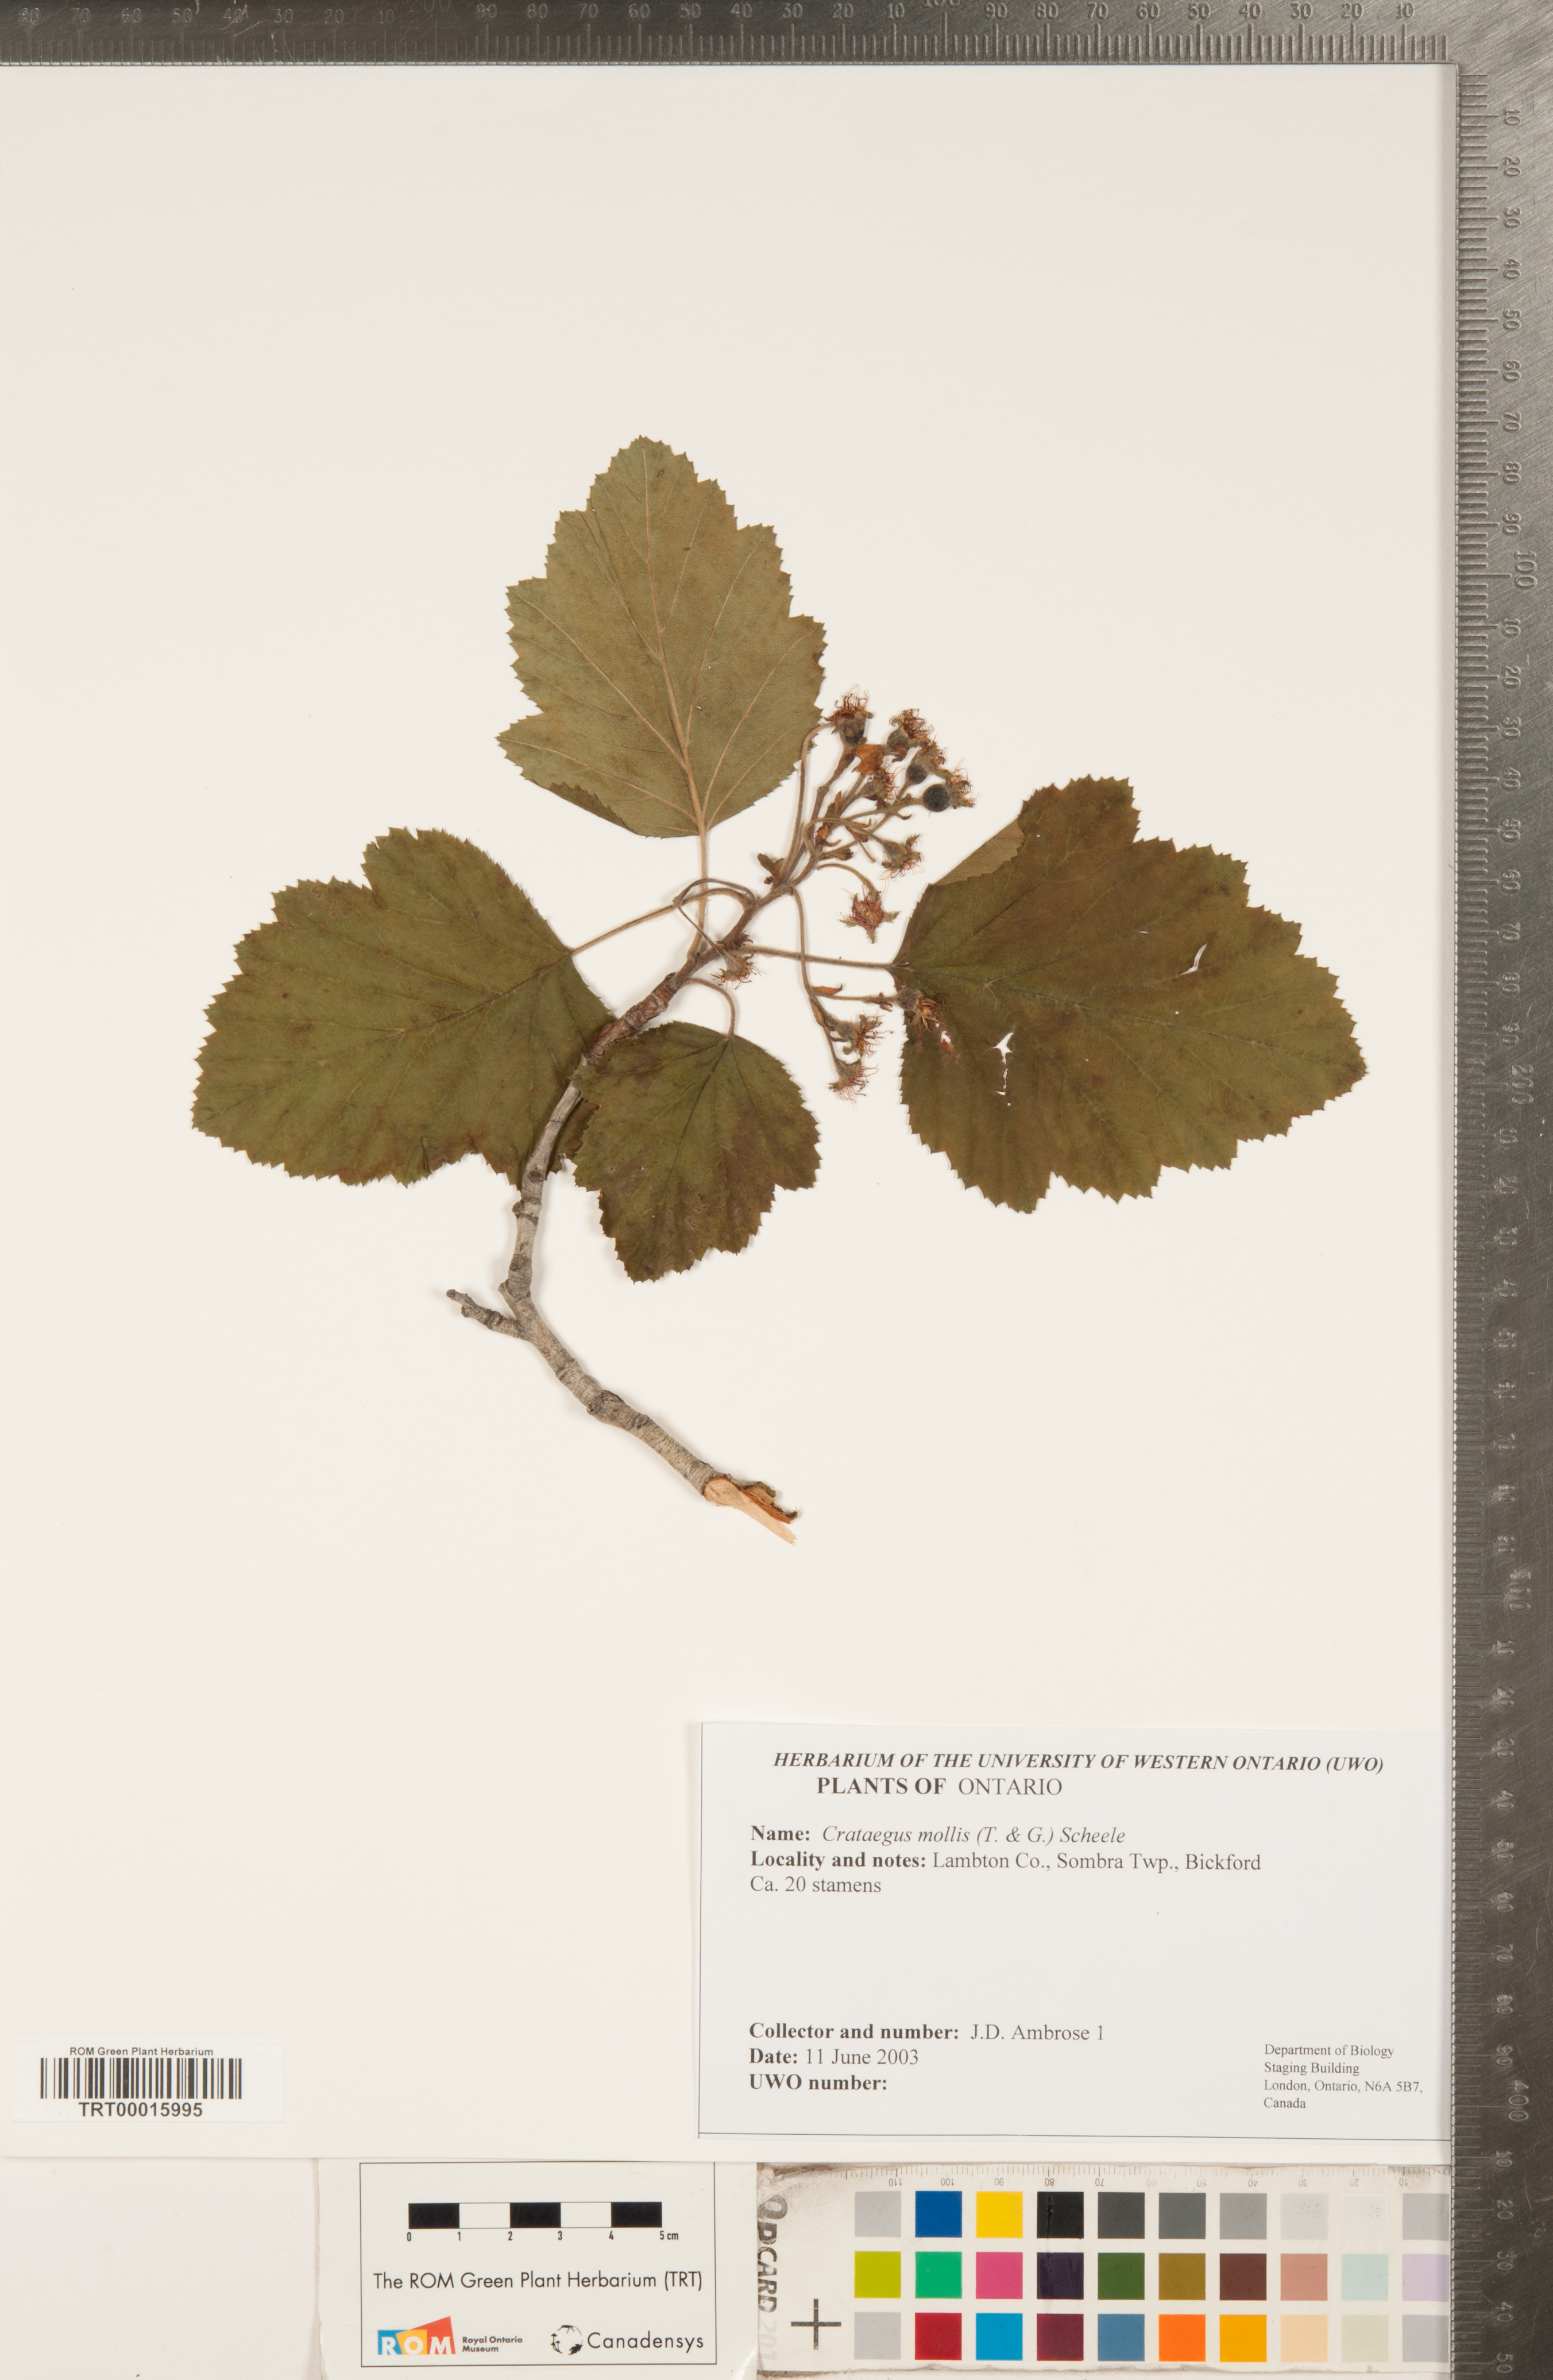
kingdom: Plantae
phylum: Tracheophyta
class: Magnoliopsida
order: Rosales
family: Rosaceae
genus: Crataegus
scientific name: Crataegus mollis
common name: Downy hawthorn
